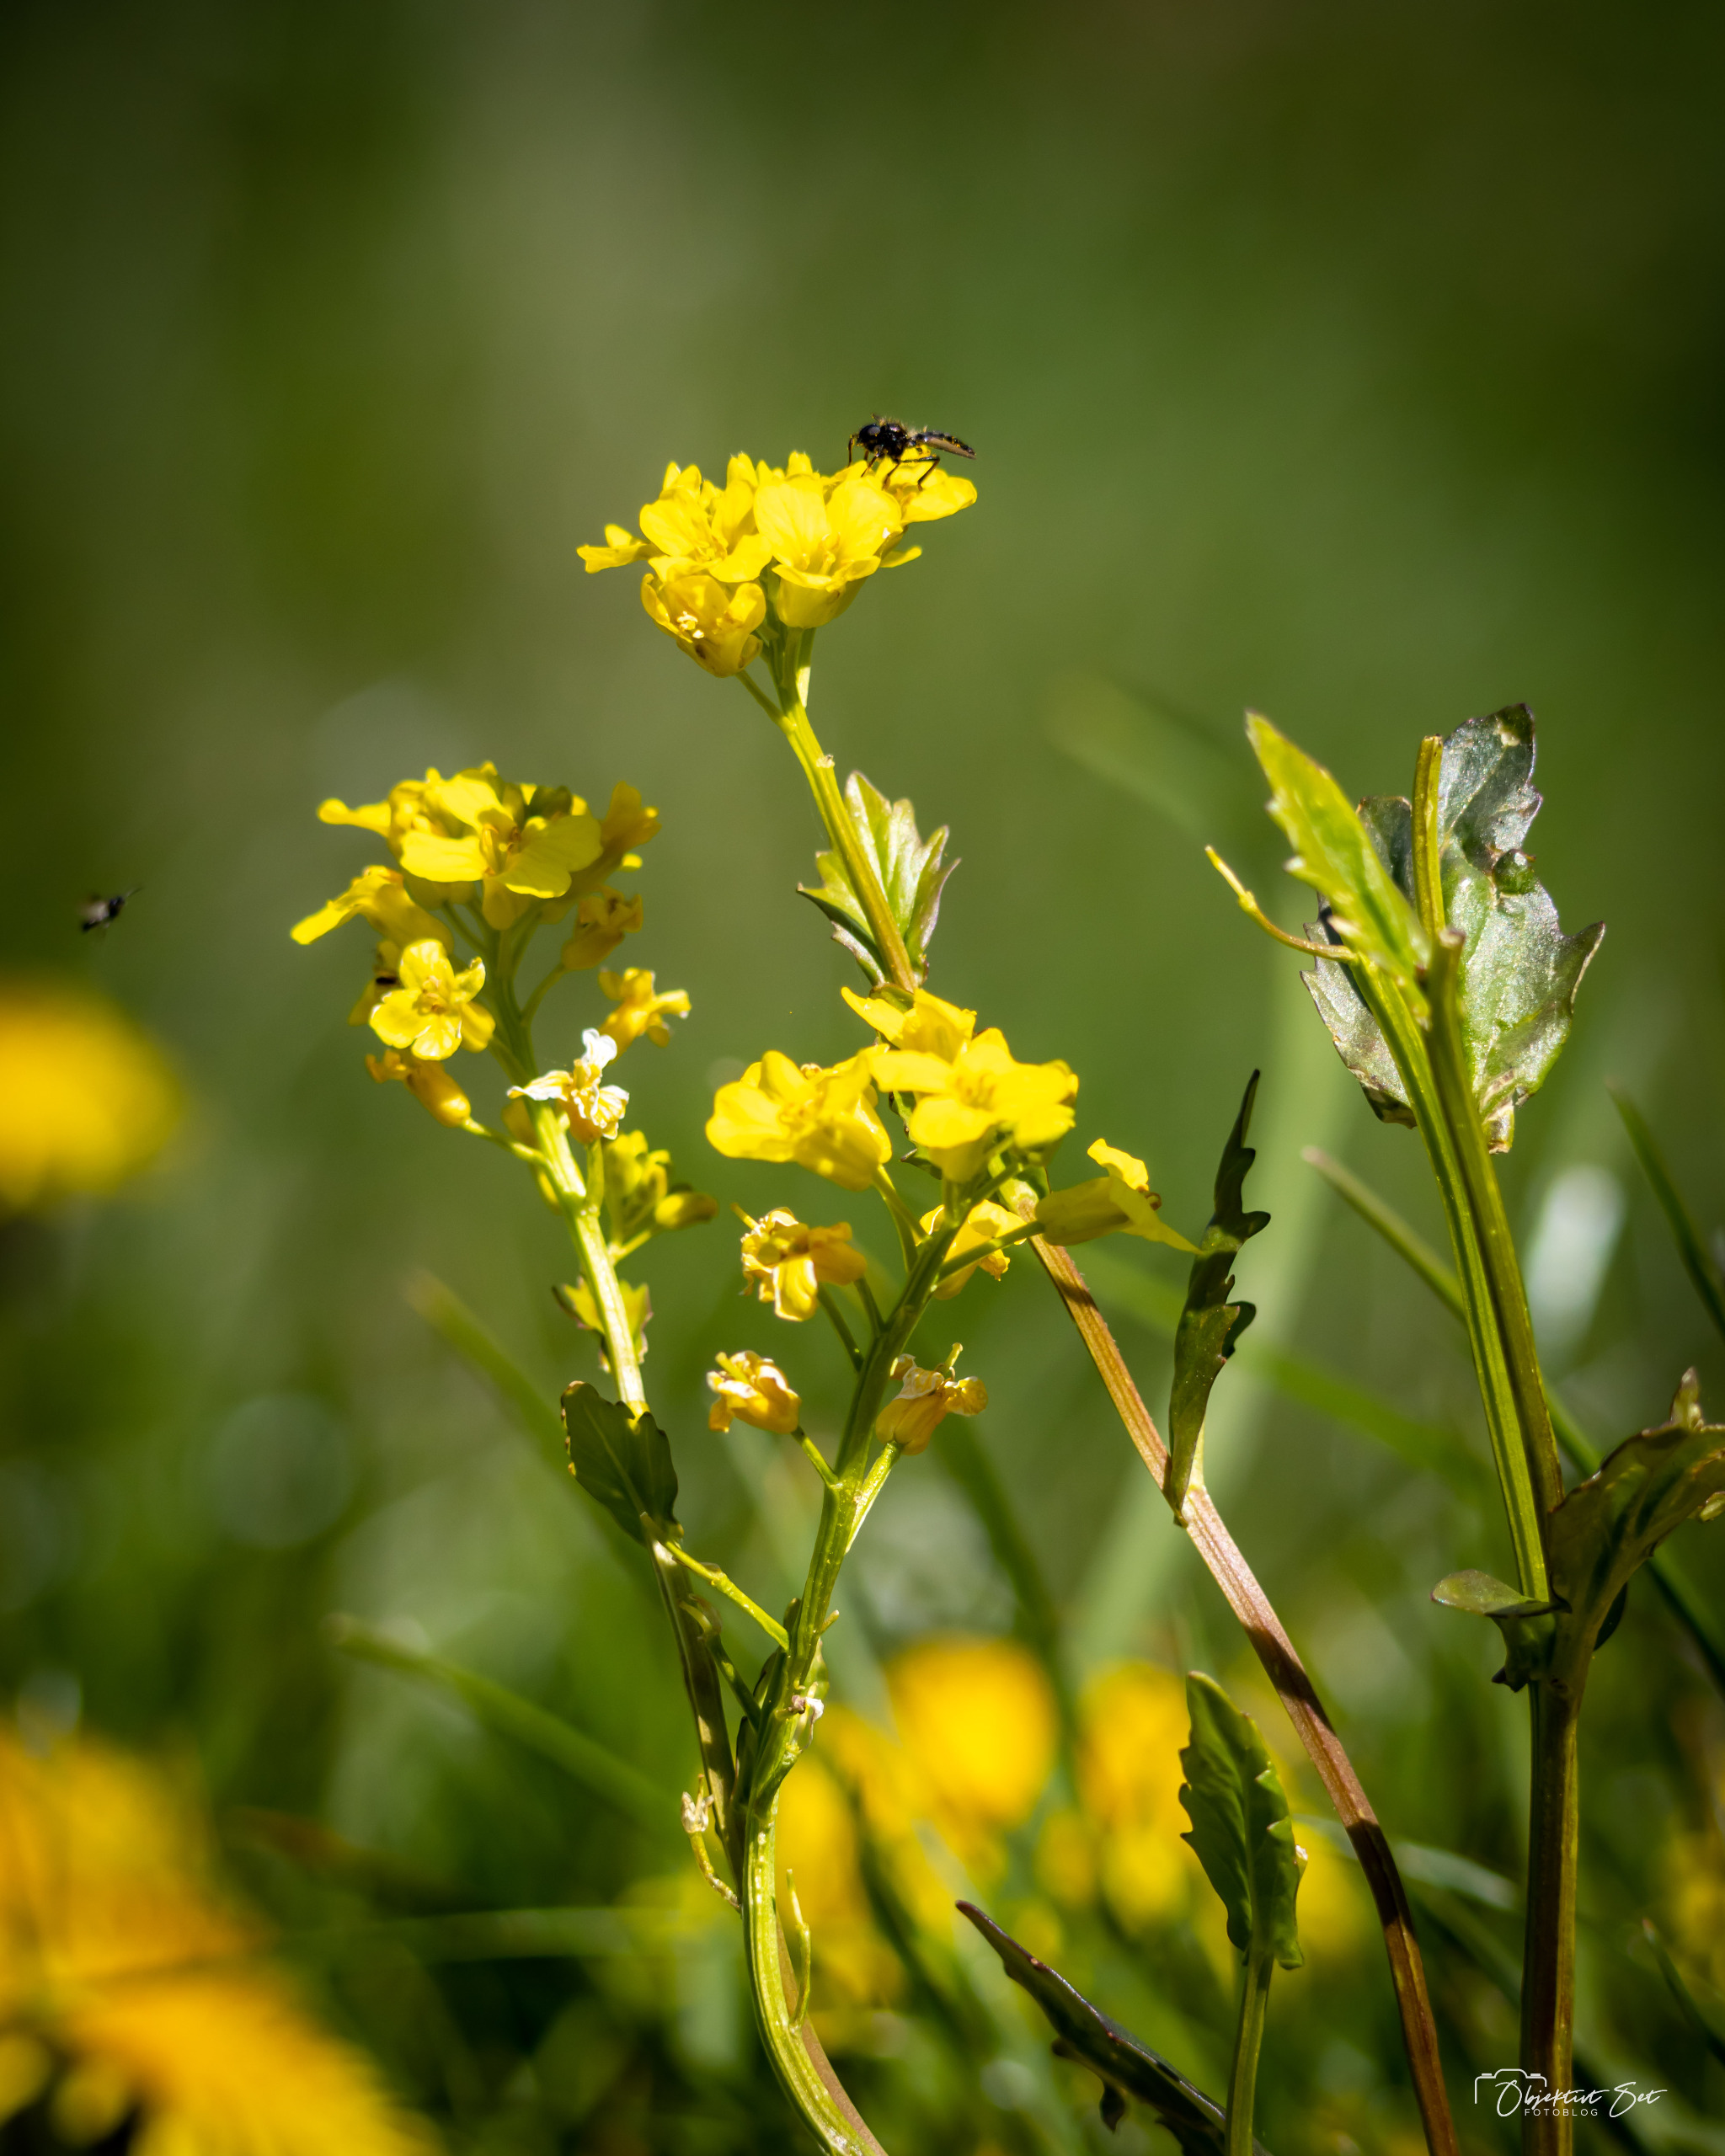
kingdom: Plantae
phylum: Tracheophyta
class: Magnoliopsida
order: Brassicales
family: Brassicaceae
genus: Barbarea
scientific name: Barbarea vulgaris
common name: Almindelig vinterkarse
